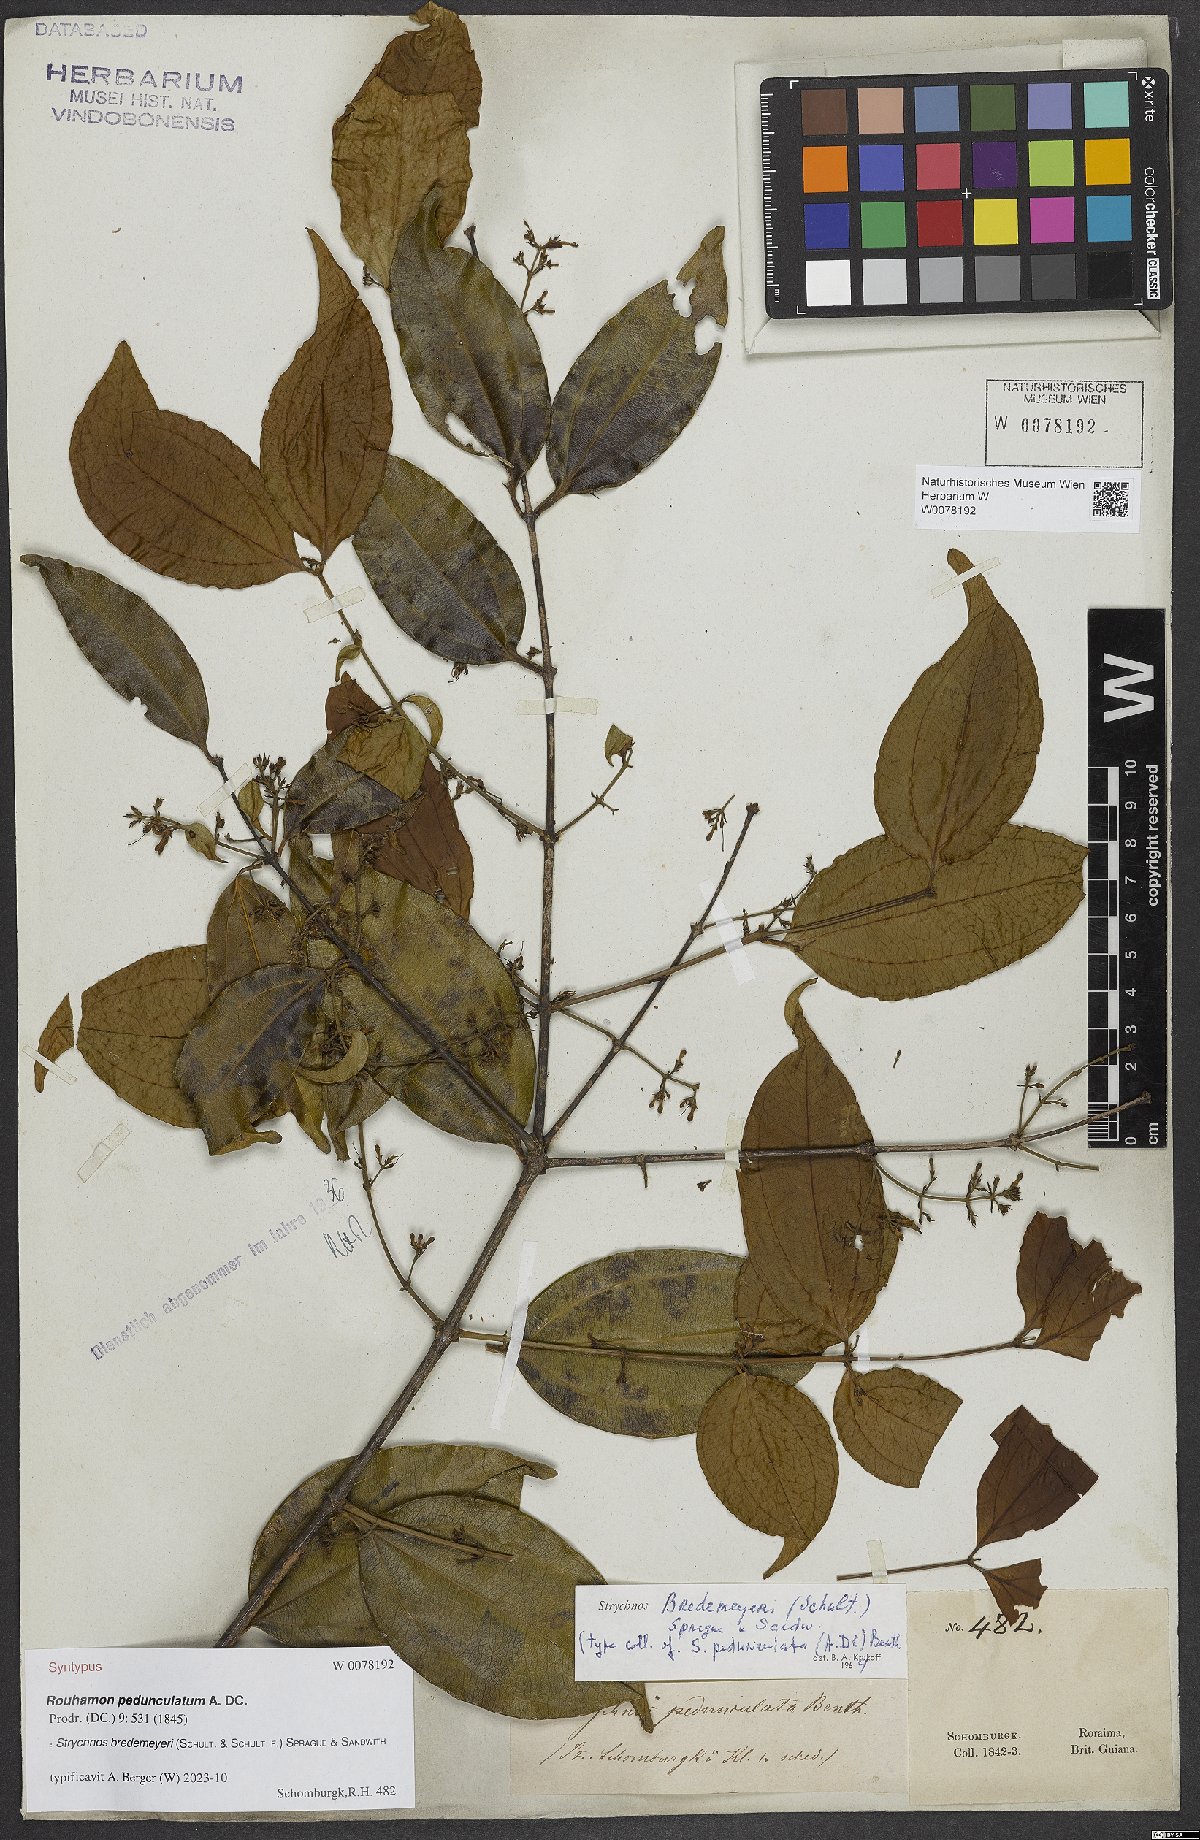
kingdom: Plantae
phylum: Tracheophyta
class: Magnoliopsida
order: Gentianales
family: Loganiaceae
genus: Strychnos
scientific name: Strychnos bredemeyeri
